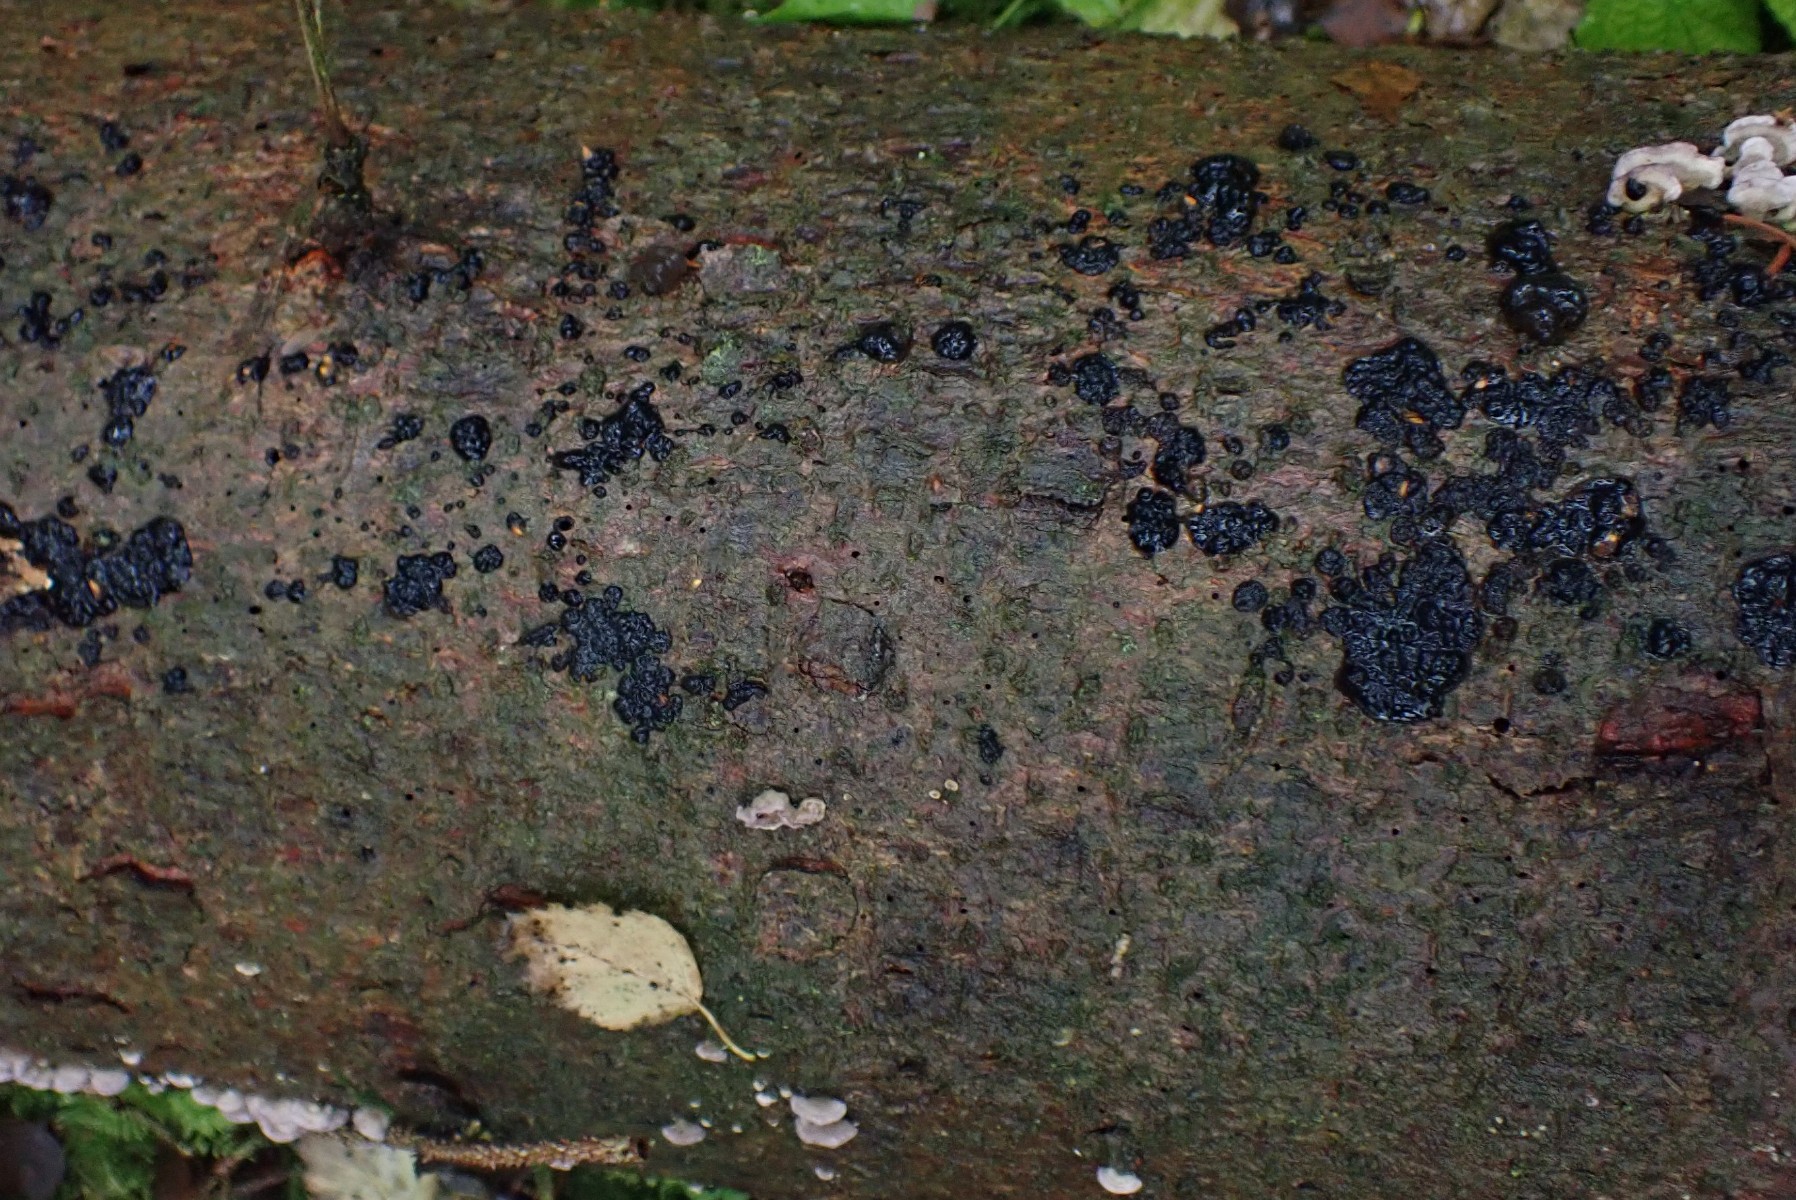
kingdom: Fungi
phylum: Basidiomycota
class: Agaricomycetes
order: Auriculariales
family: Auriculariaceae
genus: Exidia
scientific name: Exidia pithya
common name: gran-bævretop
